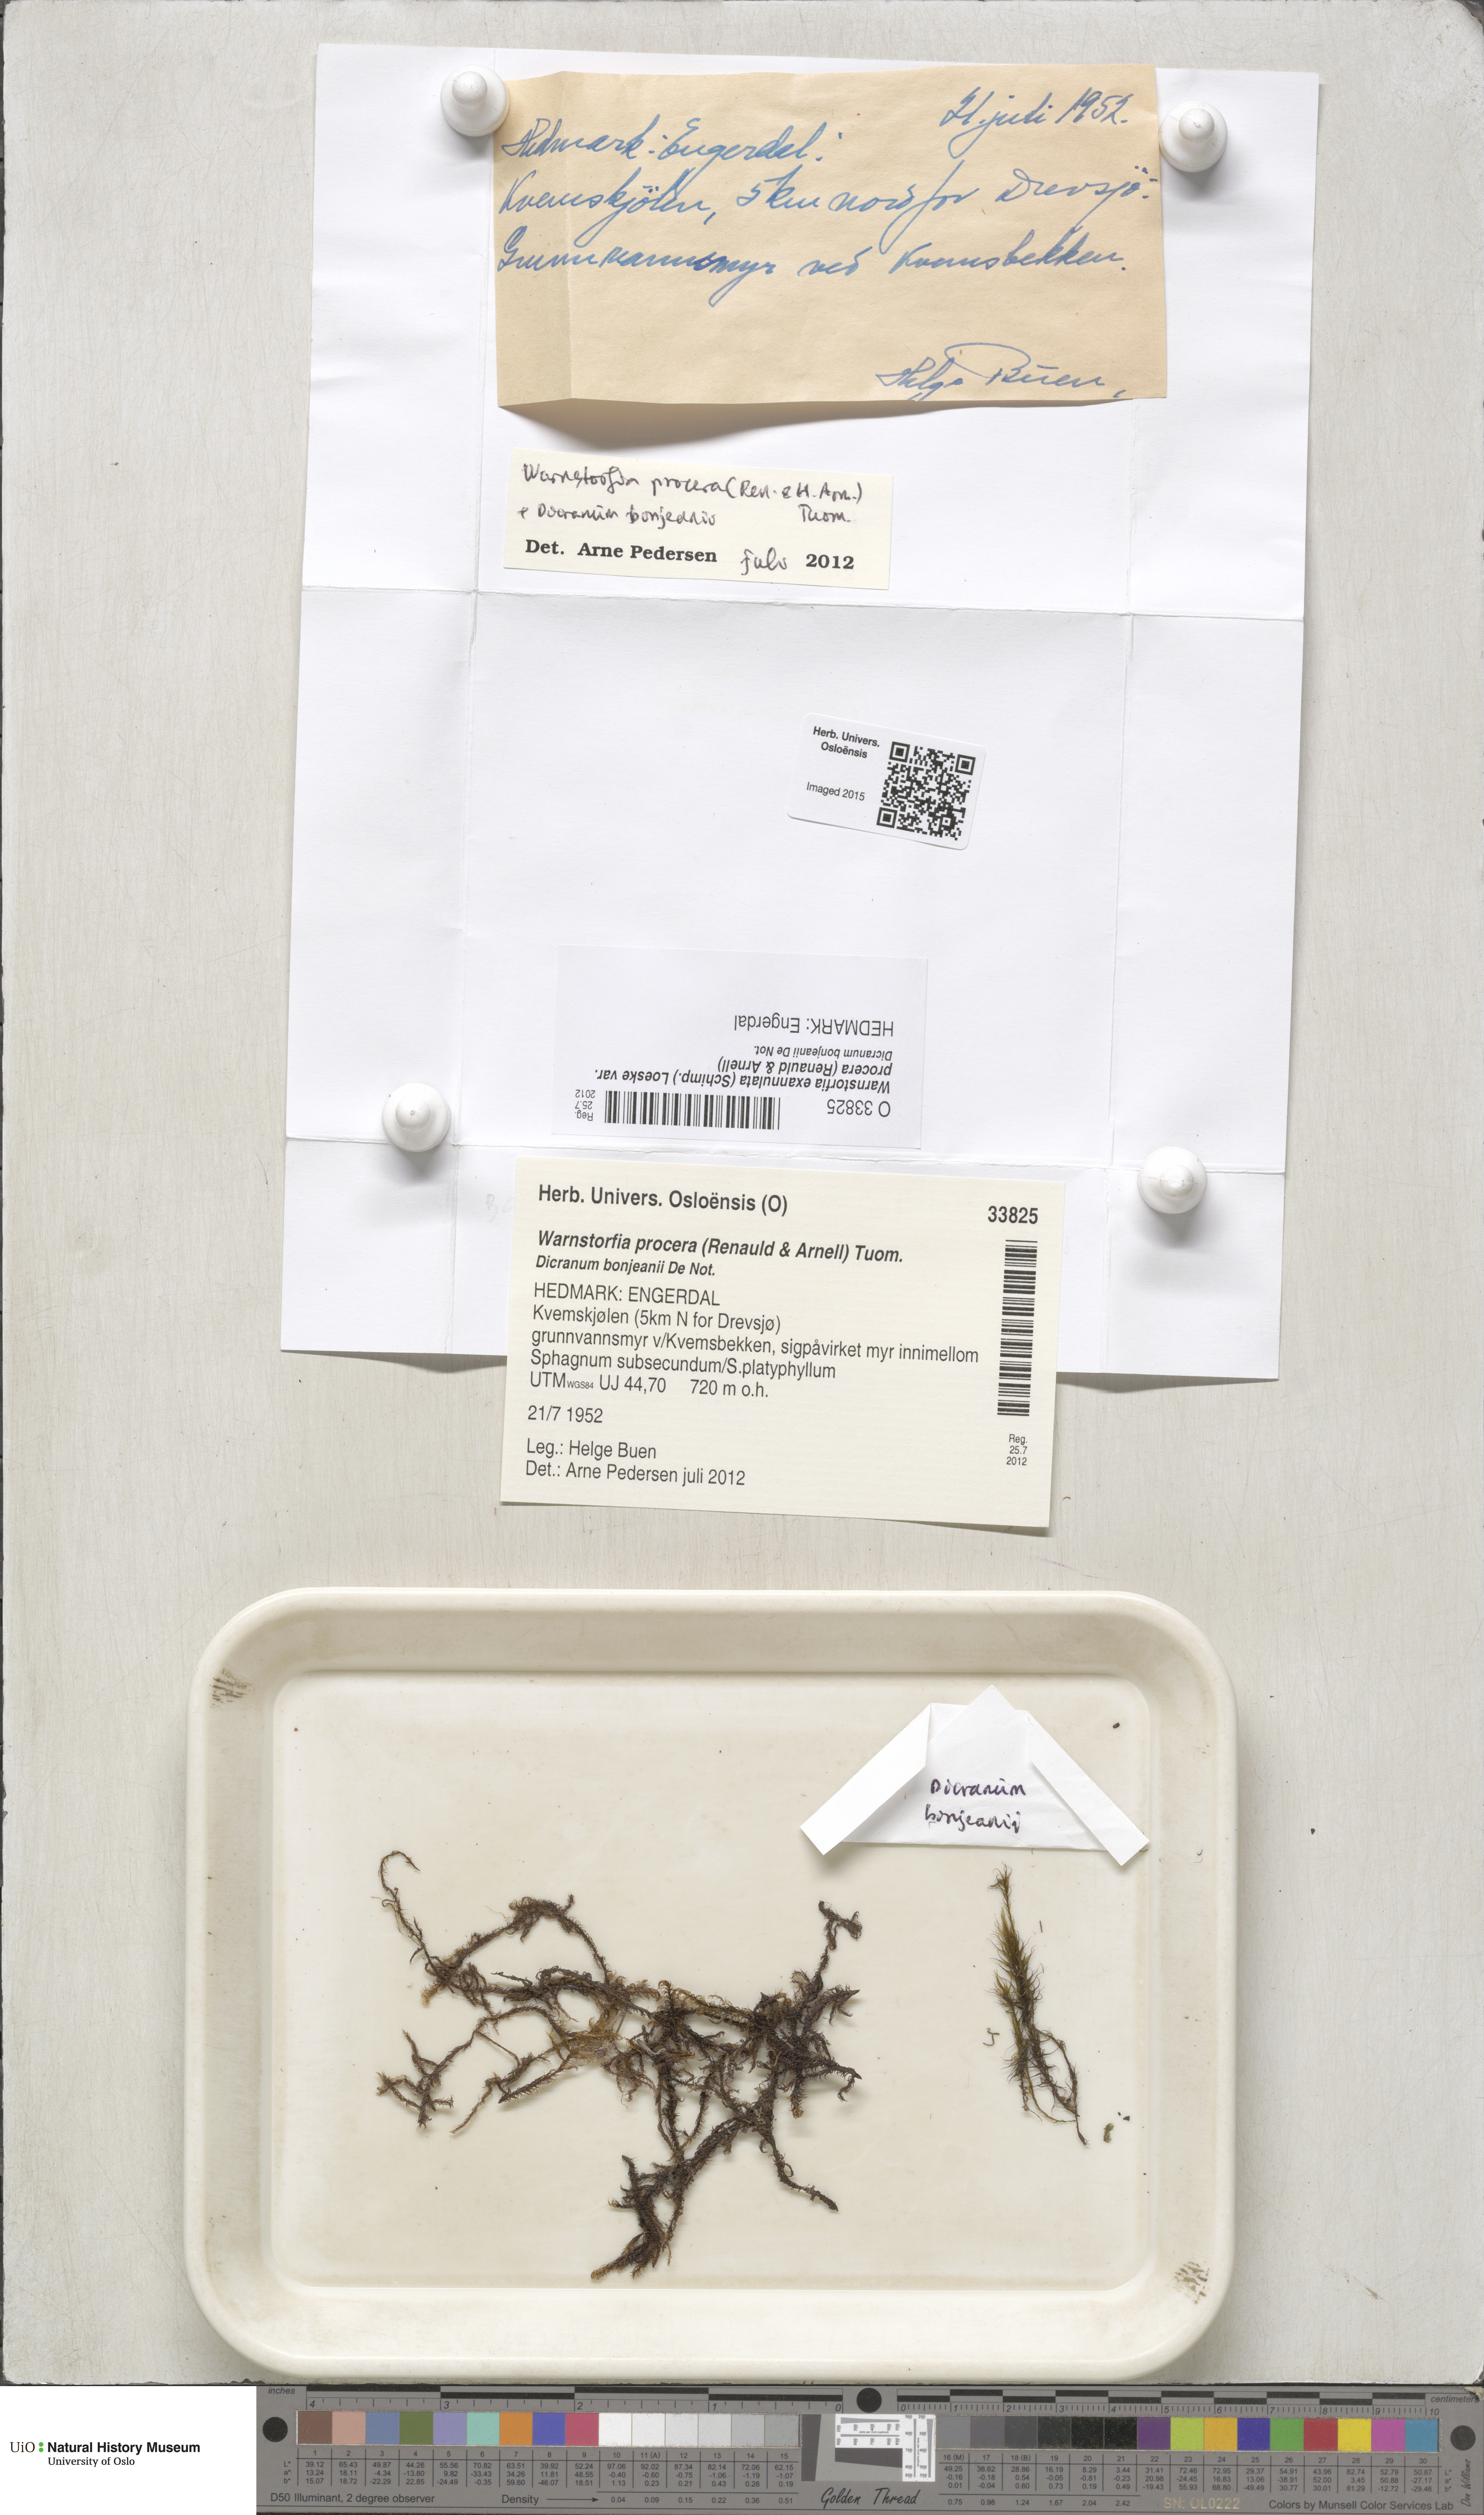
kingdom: Plantae
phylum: Bryophyta
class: Bryopsida
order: Hypnales
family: Calliergonaceae
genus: Sarmentypnum
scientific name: Sarmentypnum procerum
